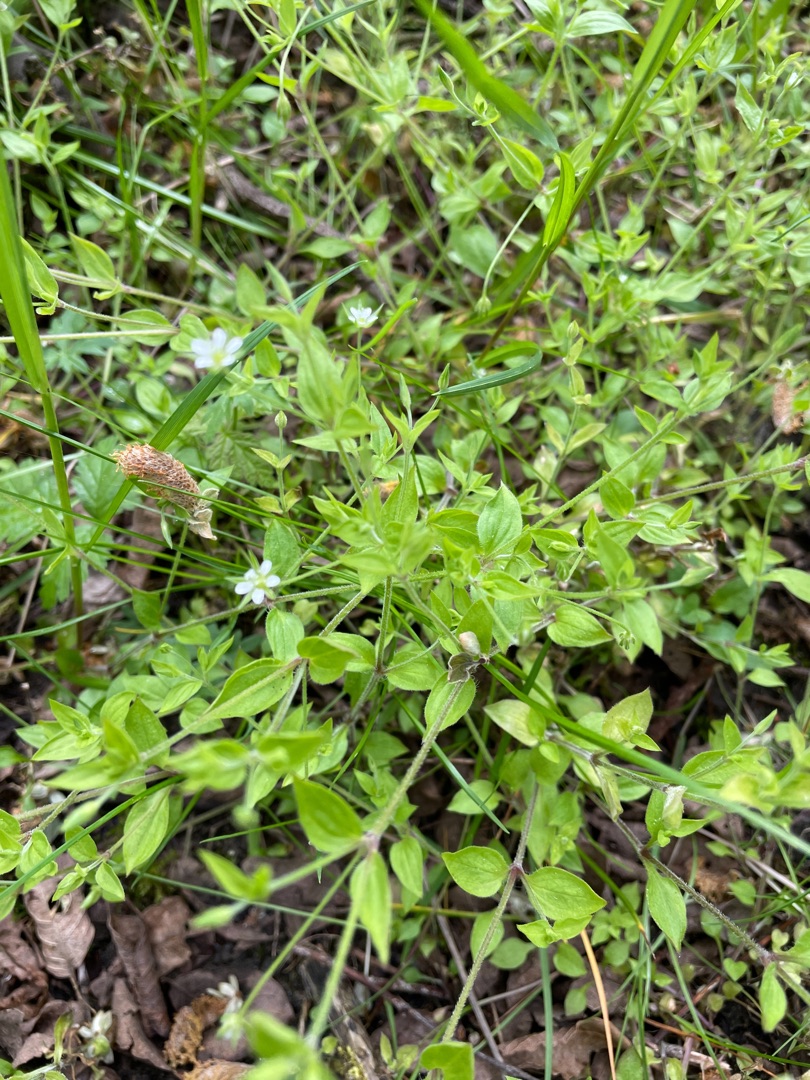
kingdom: Plantae
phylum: Tracheophyta
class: Magnoliopsida
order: Caryophyllales
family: Caryophyllaceae
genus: Moehringia
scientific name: Moehringia trinervia
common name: Skovarve
